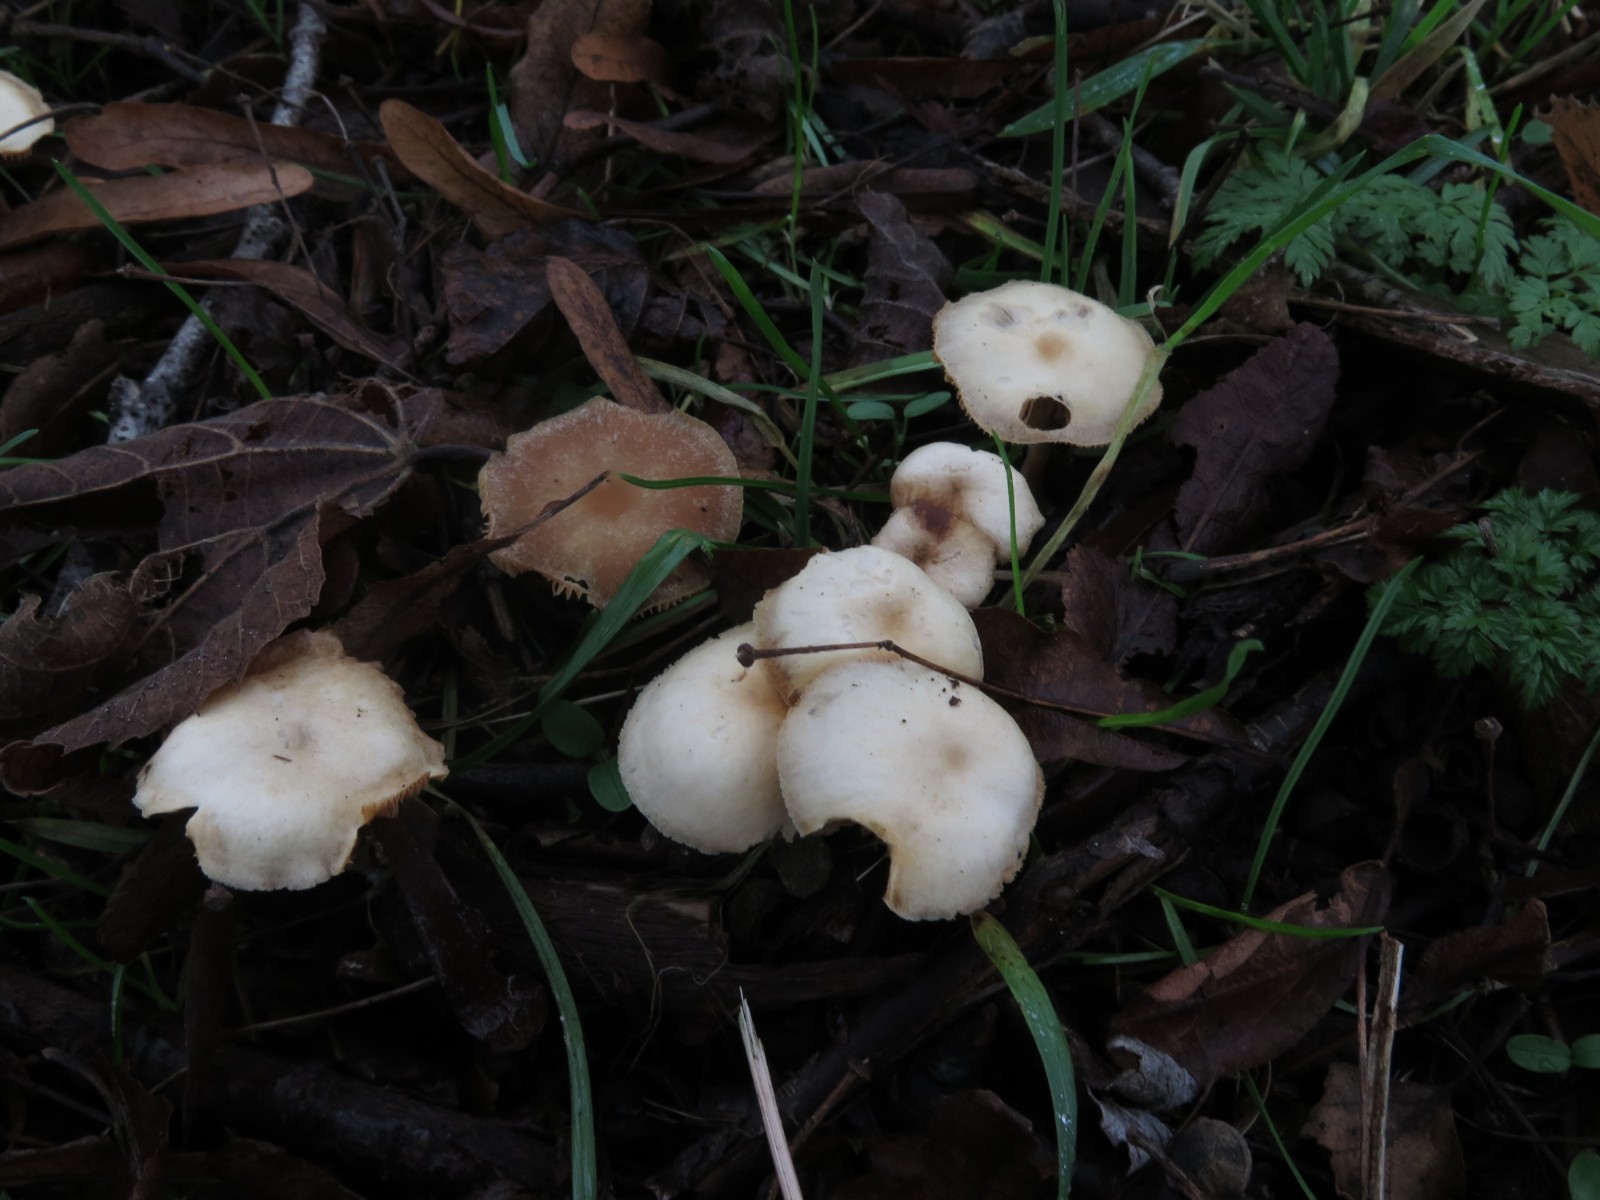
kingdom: Fungi
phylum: Basidiomycota
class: Agaricomycetes
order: Agaricales
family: Tubariaceae
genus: Tubaria
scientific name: Tubaria furfuracea
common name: kliddet fnughat
